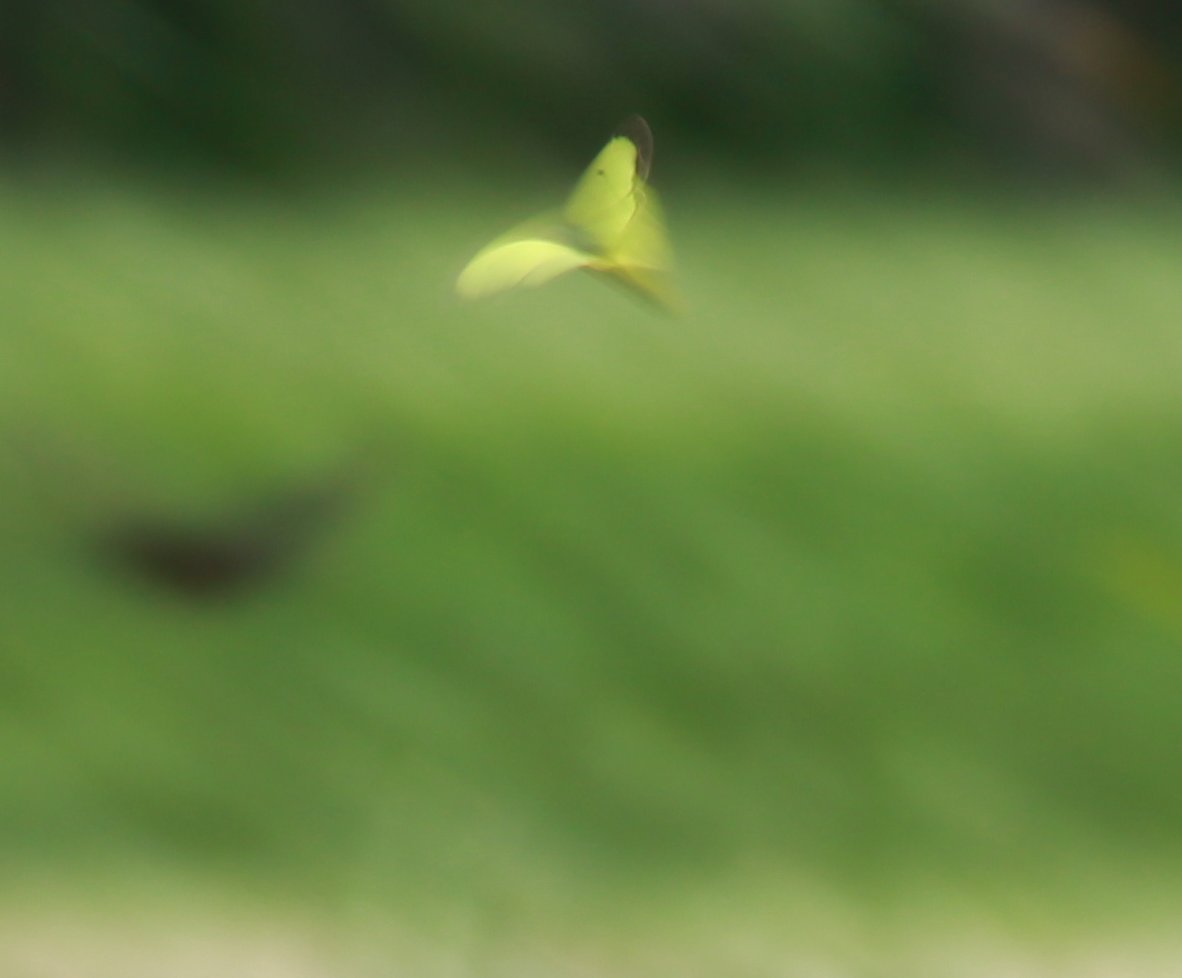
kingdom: Animalia
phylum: Arthropoda
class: Insecta
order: Lepidoptera
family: Pieridae
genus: Colias
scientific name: Colias philodice
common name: Clouded Sulphur
